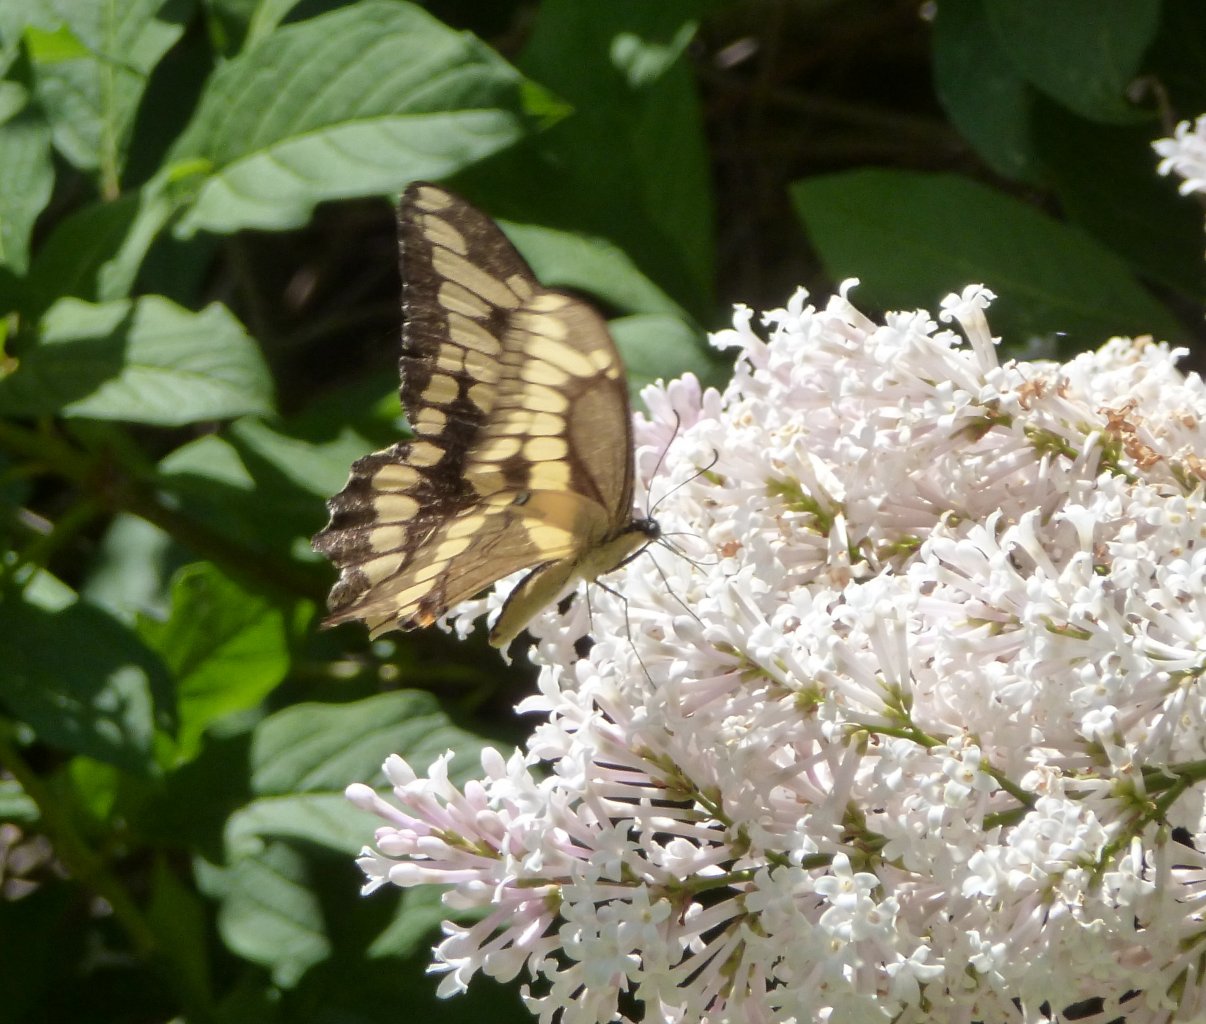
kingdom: Animalia
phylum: Arthropoda
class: Insecta
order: Lepidoptera
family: Papilionidae
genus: Papilio
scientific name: Papilio cresphontes
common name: Eastern Giant Swallowtail
